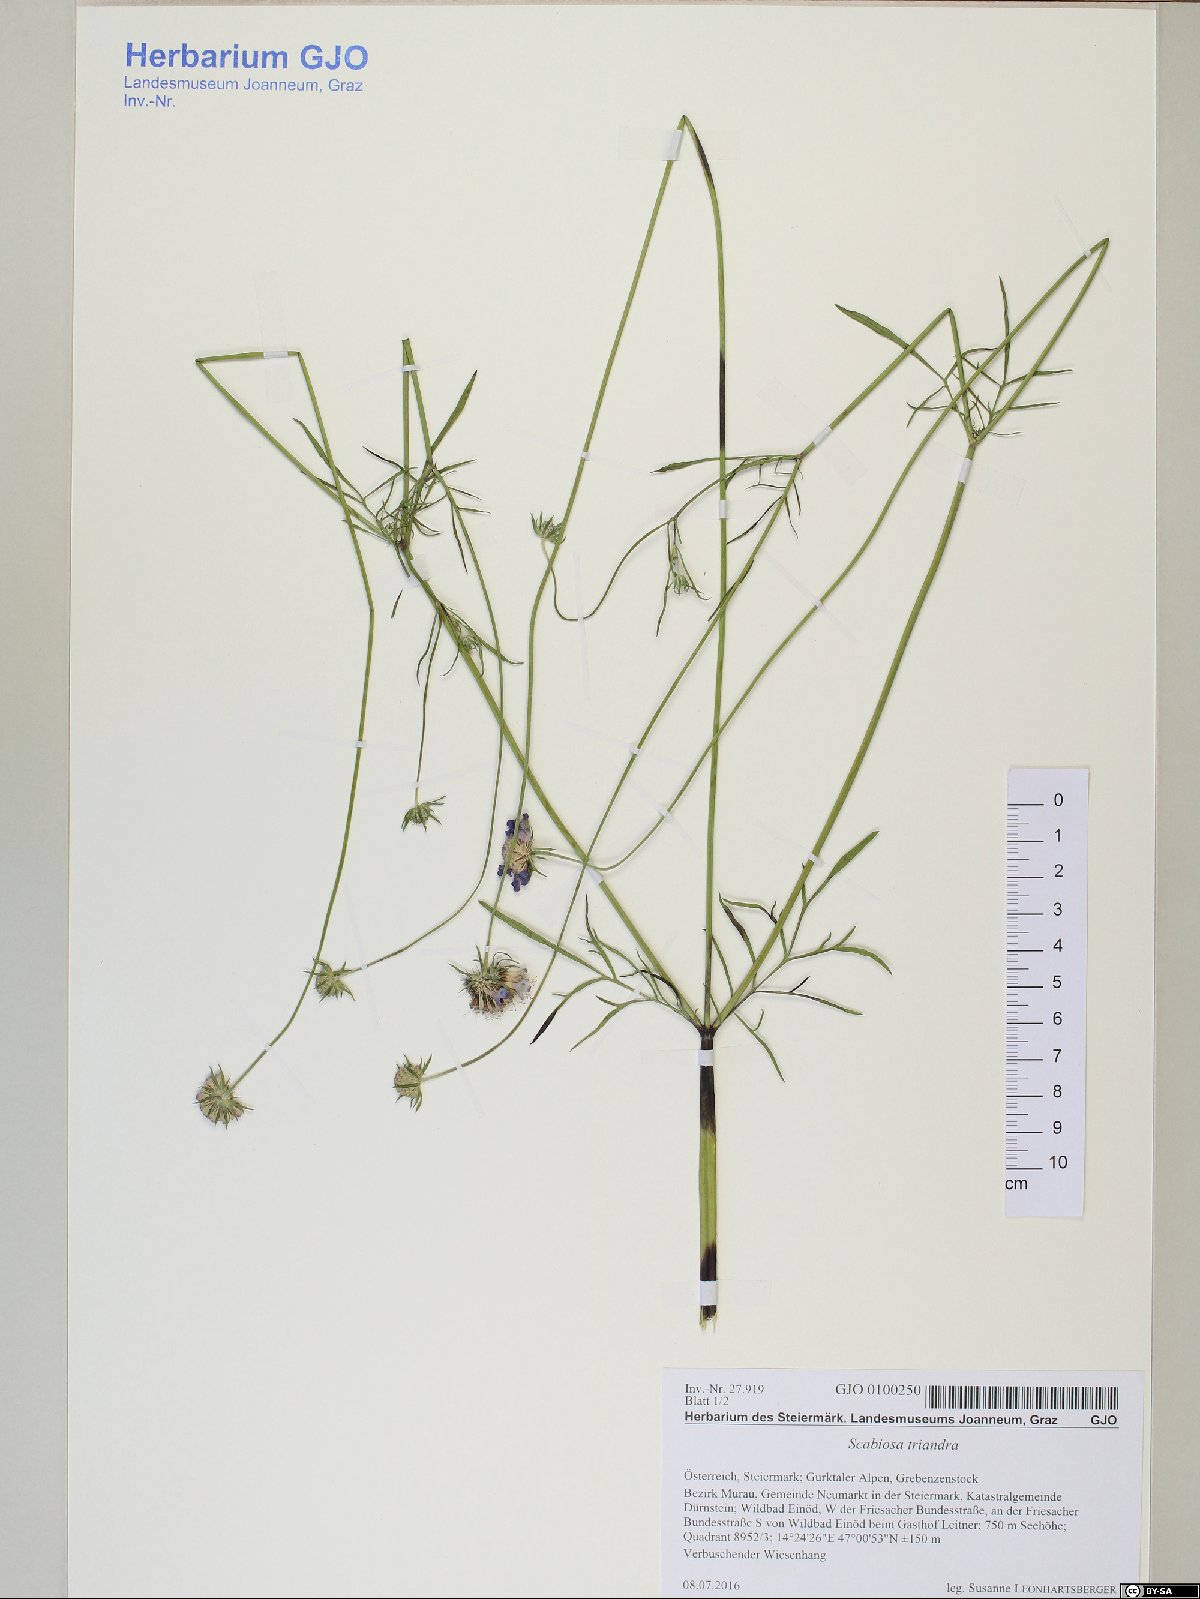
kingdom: Plantae
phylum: Tracheophyta
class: Magnoliopsida
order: Dipsacales
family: Caprifoliaceae
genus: Scabiosa
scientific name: Scabiosa triandra
